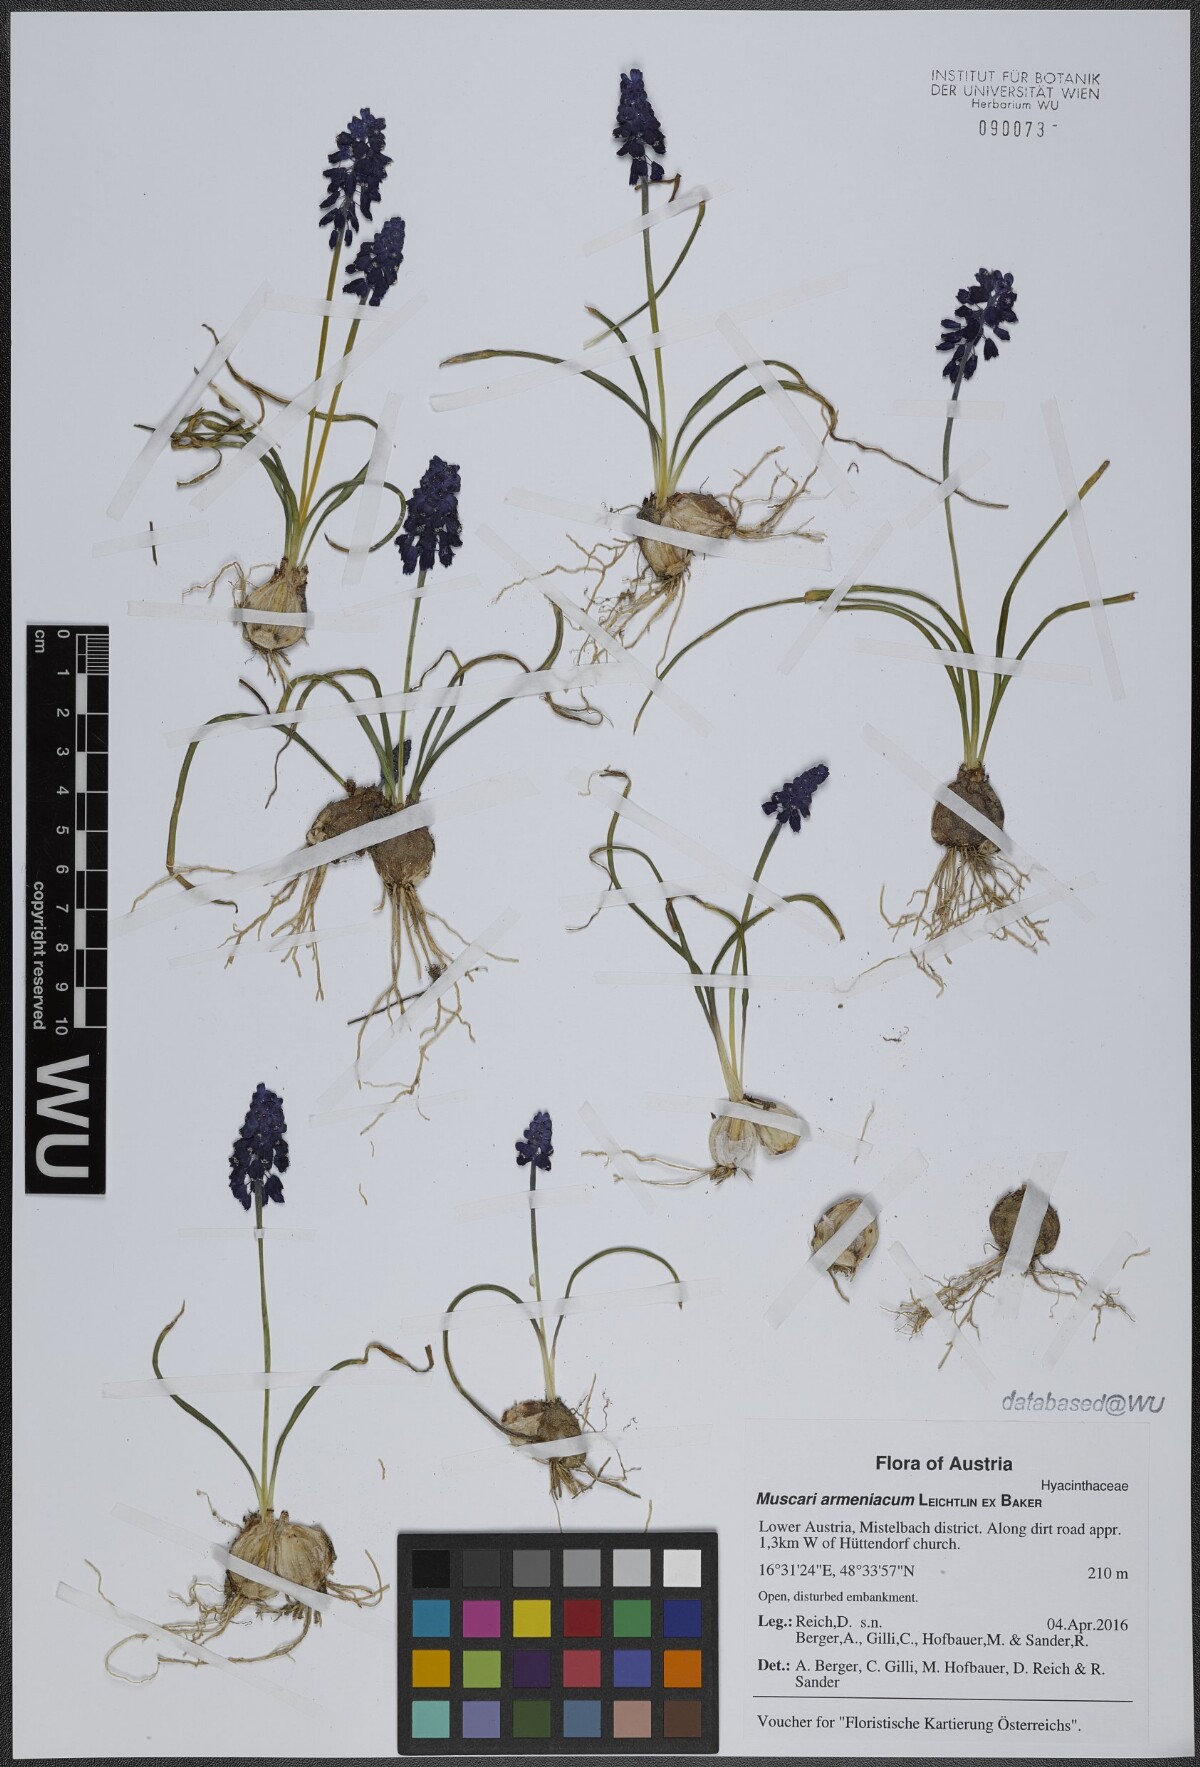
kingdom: Plantae
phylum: Tracheophyta
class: Liliopsida
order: Asparagales
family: Asparagaceae
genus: Muscari
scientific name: Muscari armeniacum
